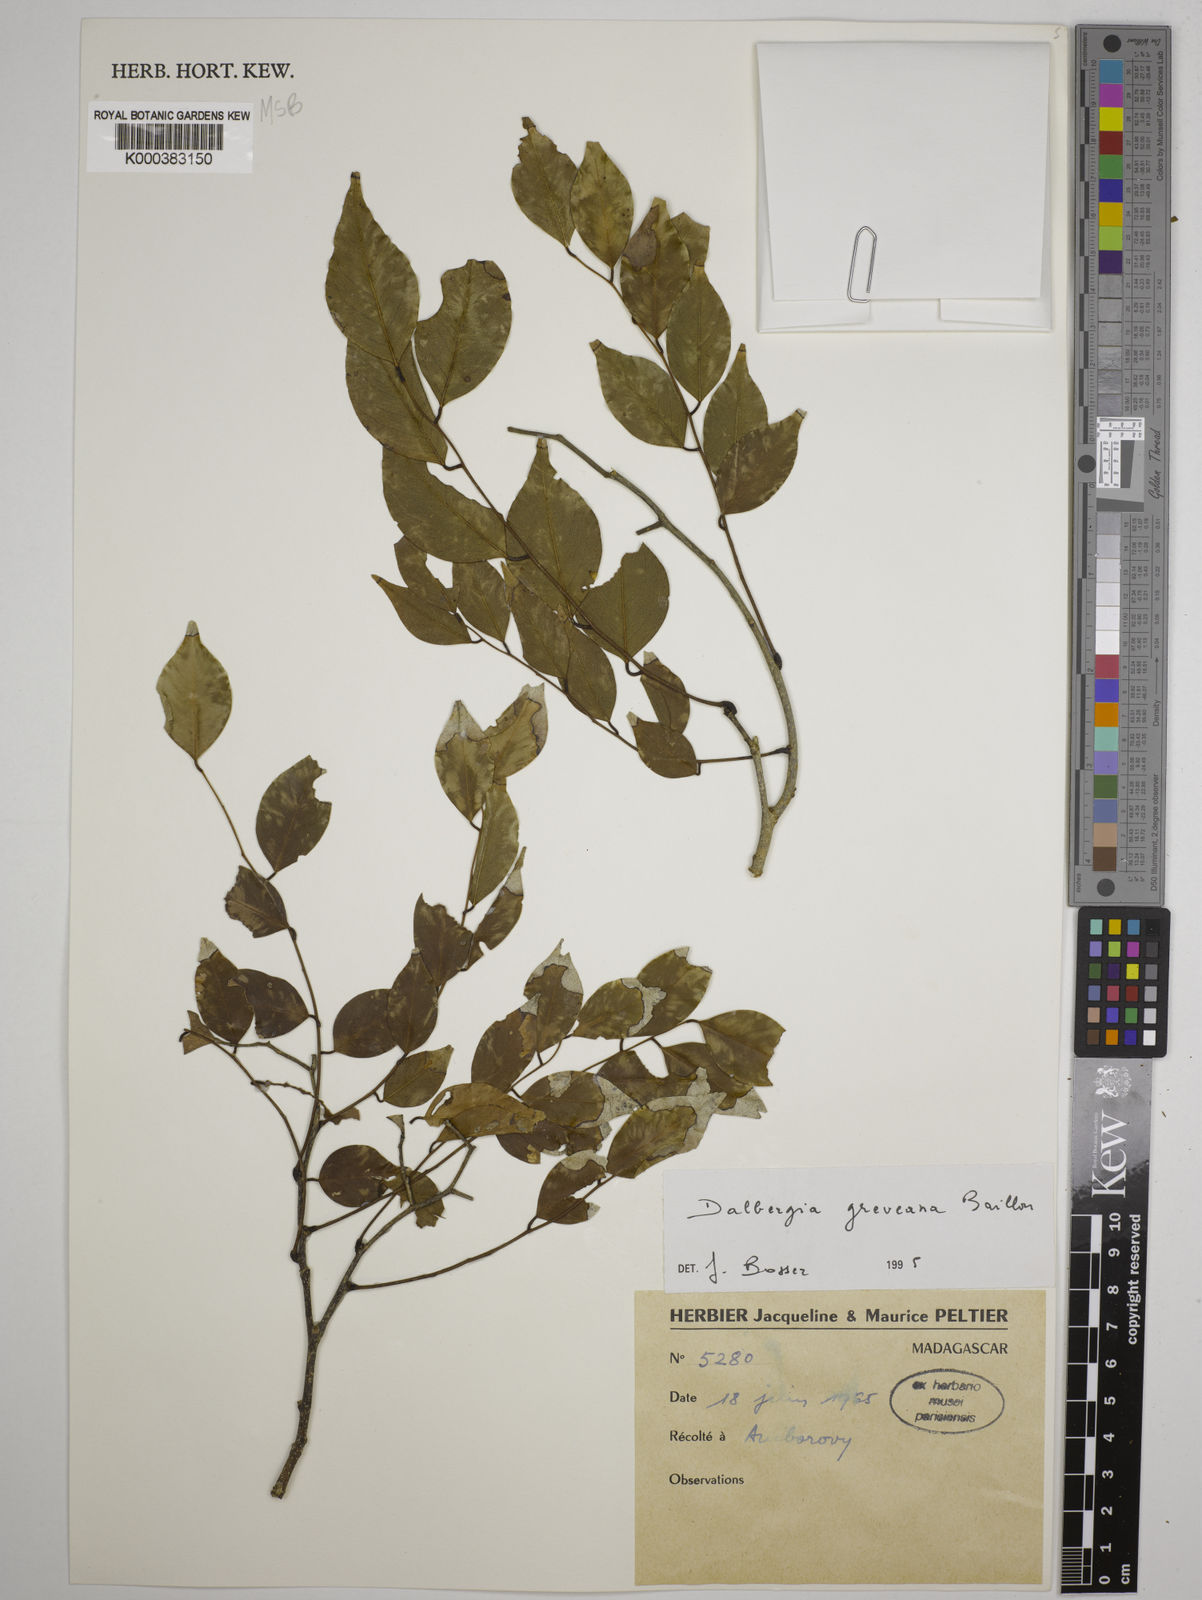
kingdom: Plantae
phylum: Tracheophyta
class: Magnoliopsida
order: Fabales
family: Fabaceae
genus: Dalbergia
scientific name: Dalbergia greveana
